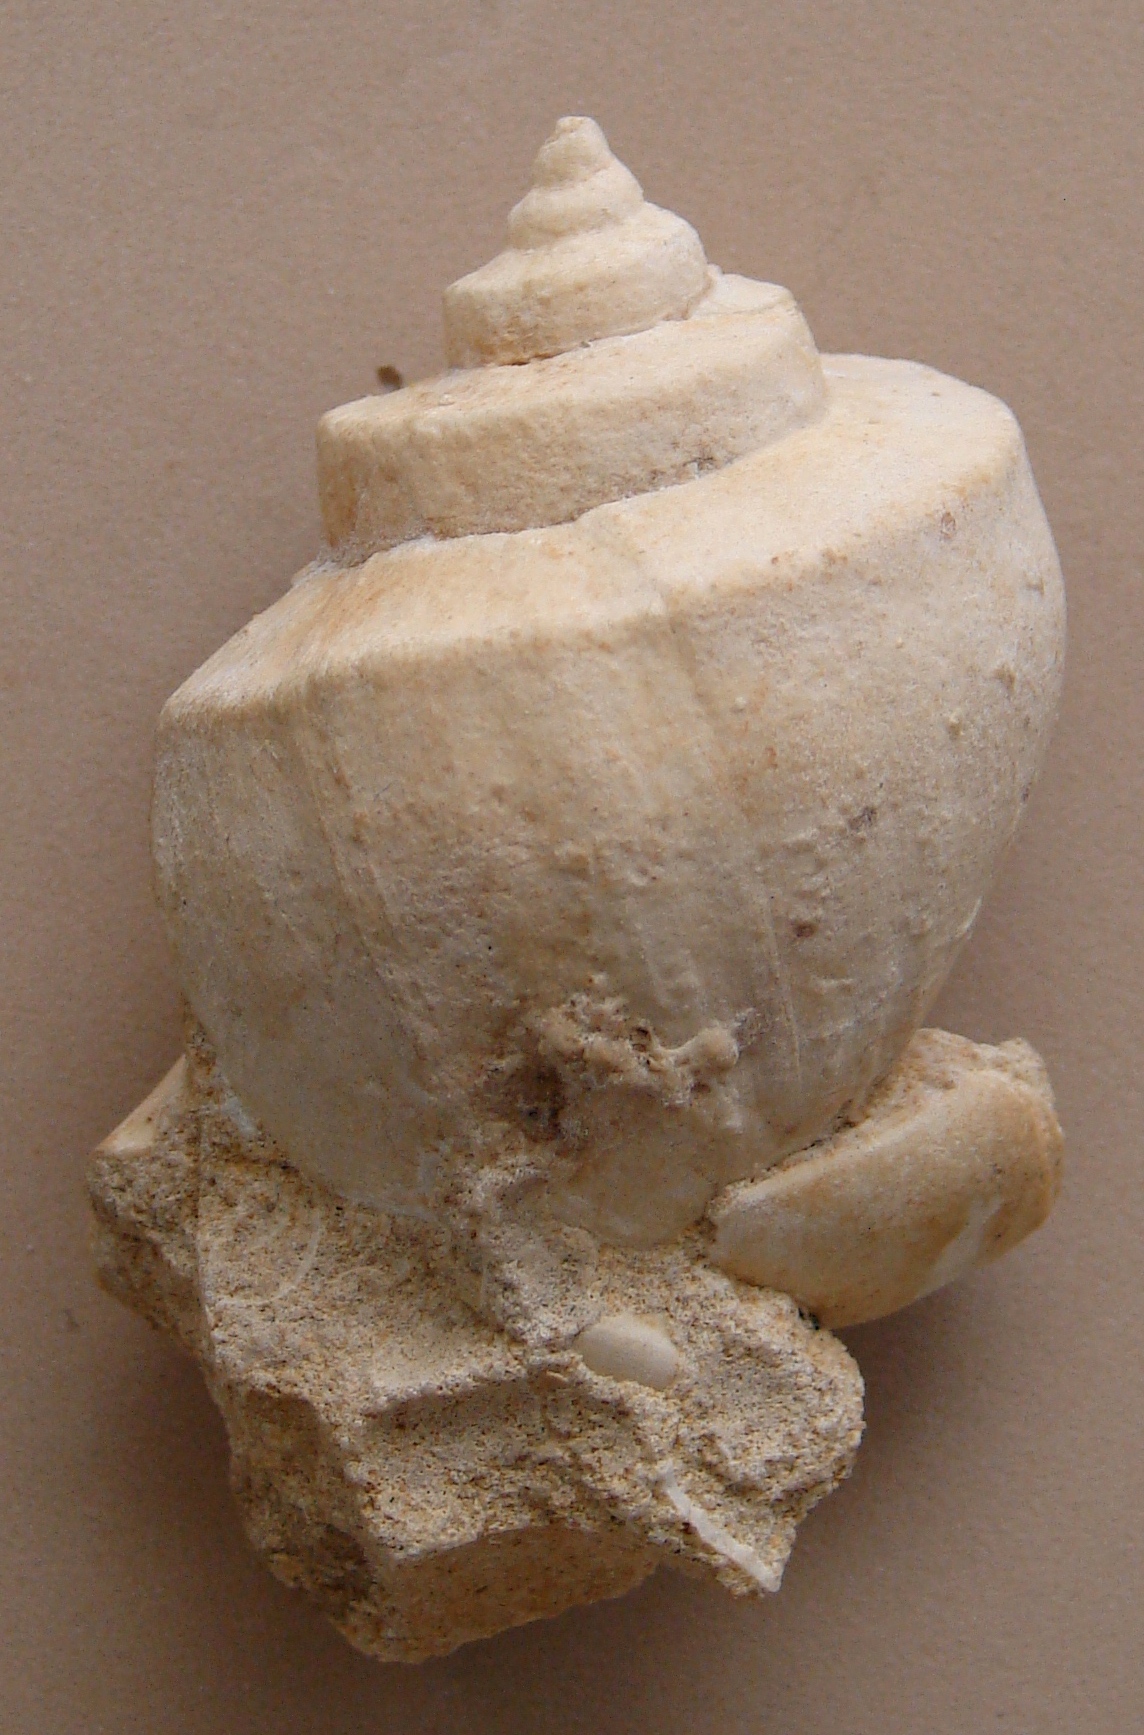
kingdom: Animalia
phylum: Mollusca
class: Gastropoda
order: Architaenioglossa
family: Ampullariidae
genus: Lanistes
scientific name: Lanistes boltenianus
